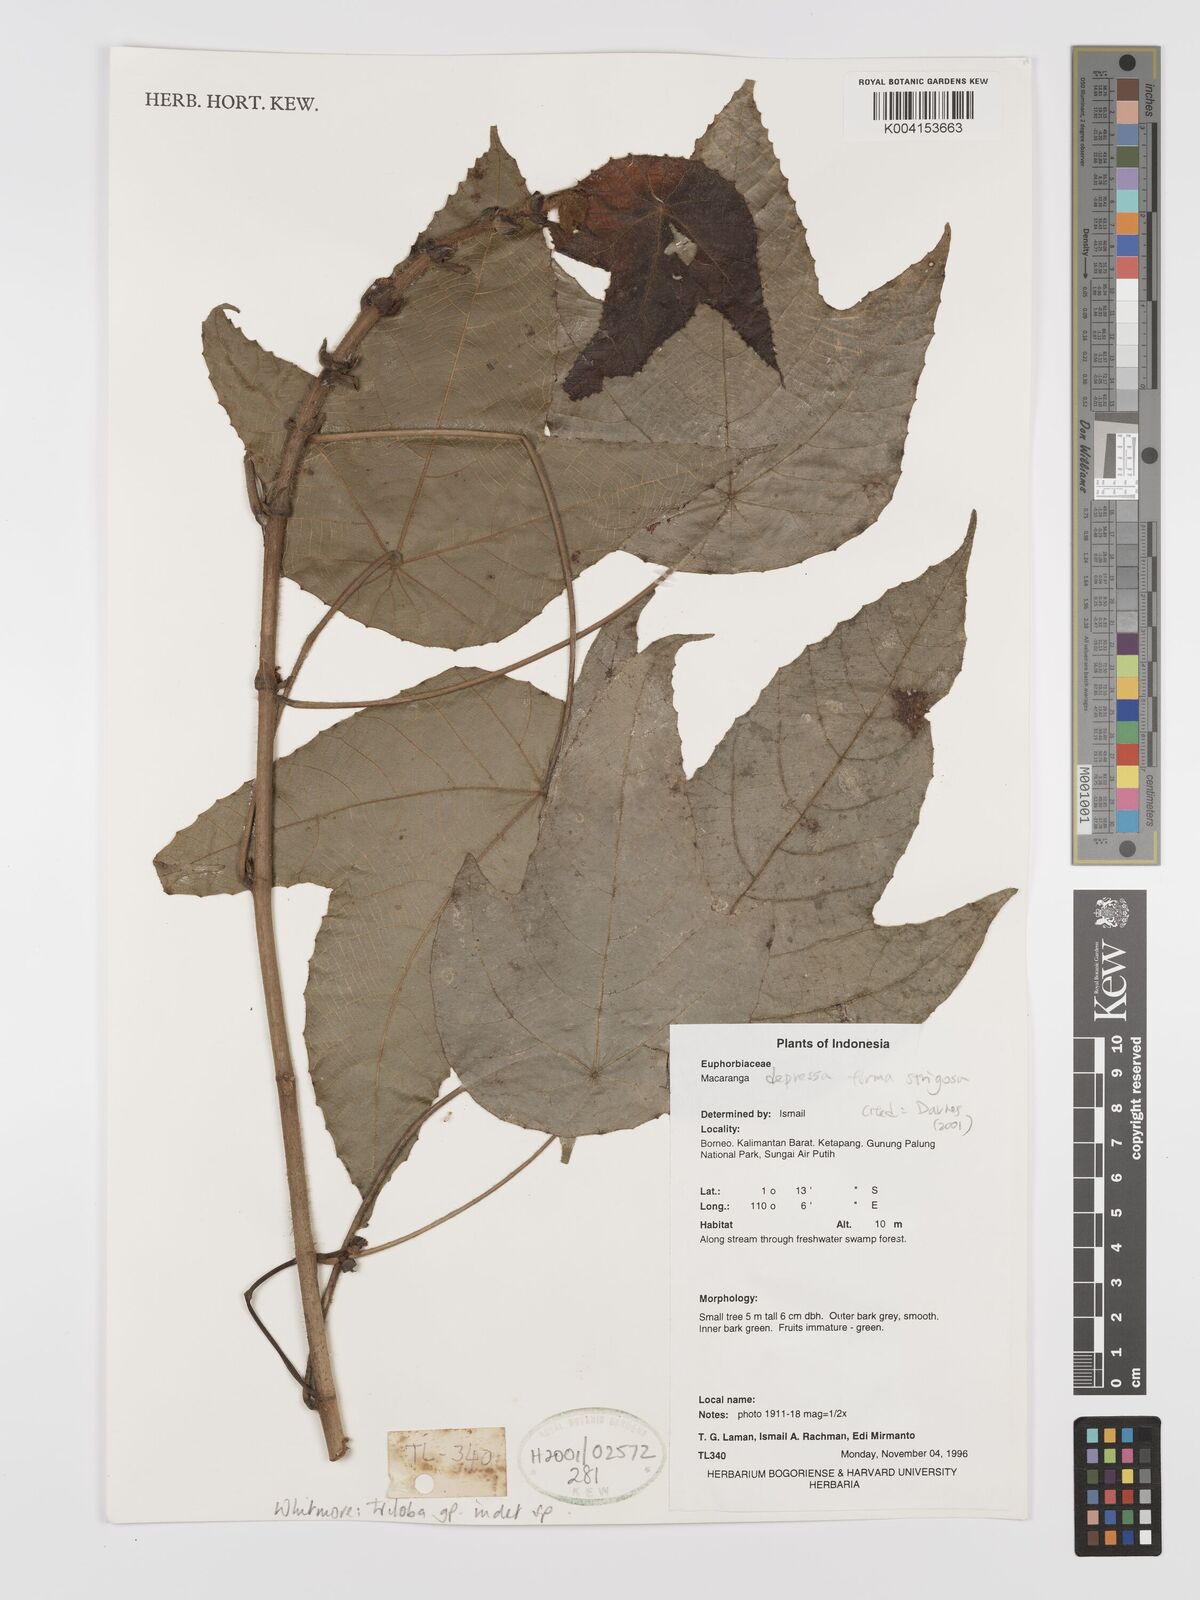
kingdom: Plantae
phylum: Tracheophyta
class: Magnoliopsida
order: Malpighiales
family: Euphorbiaceae
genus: Macaranga
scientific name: Macaranga triloba
